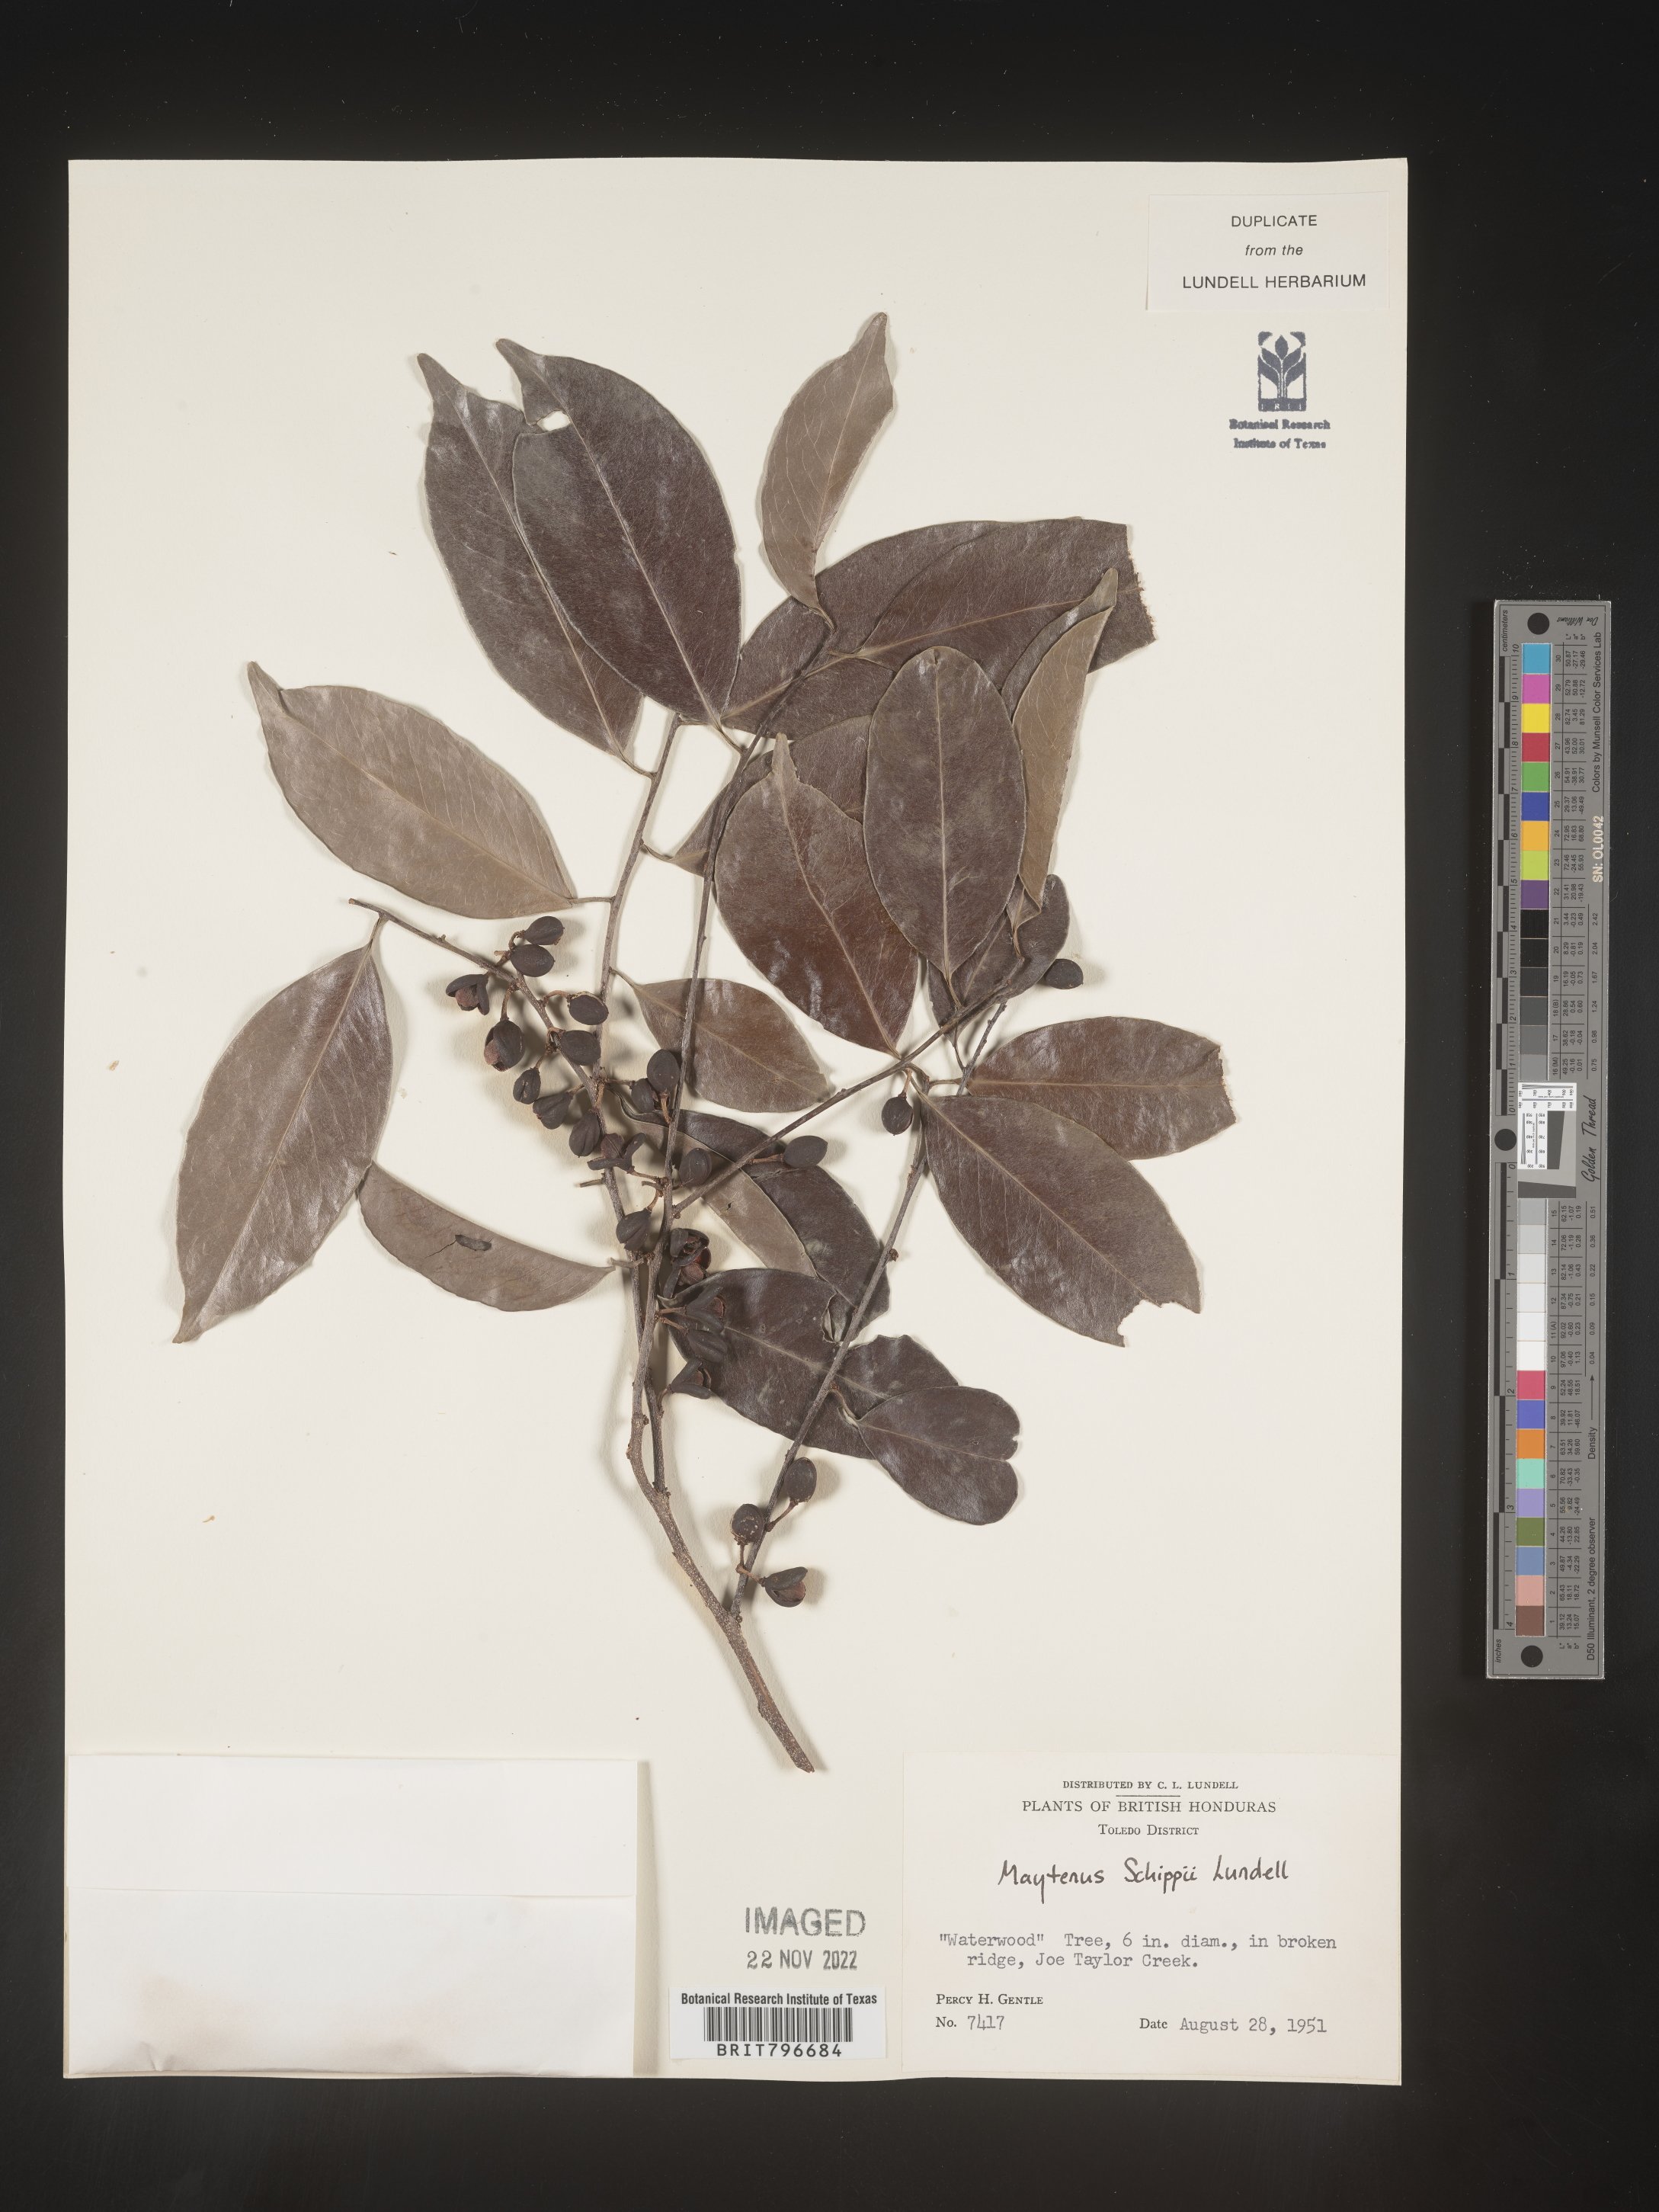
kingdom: Plantae
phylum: Tracheophyta
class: Magnoliopsida
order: Celastrales
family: Celastraceae
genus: Monteverdia
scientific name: Monteverdia schippii
